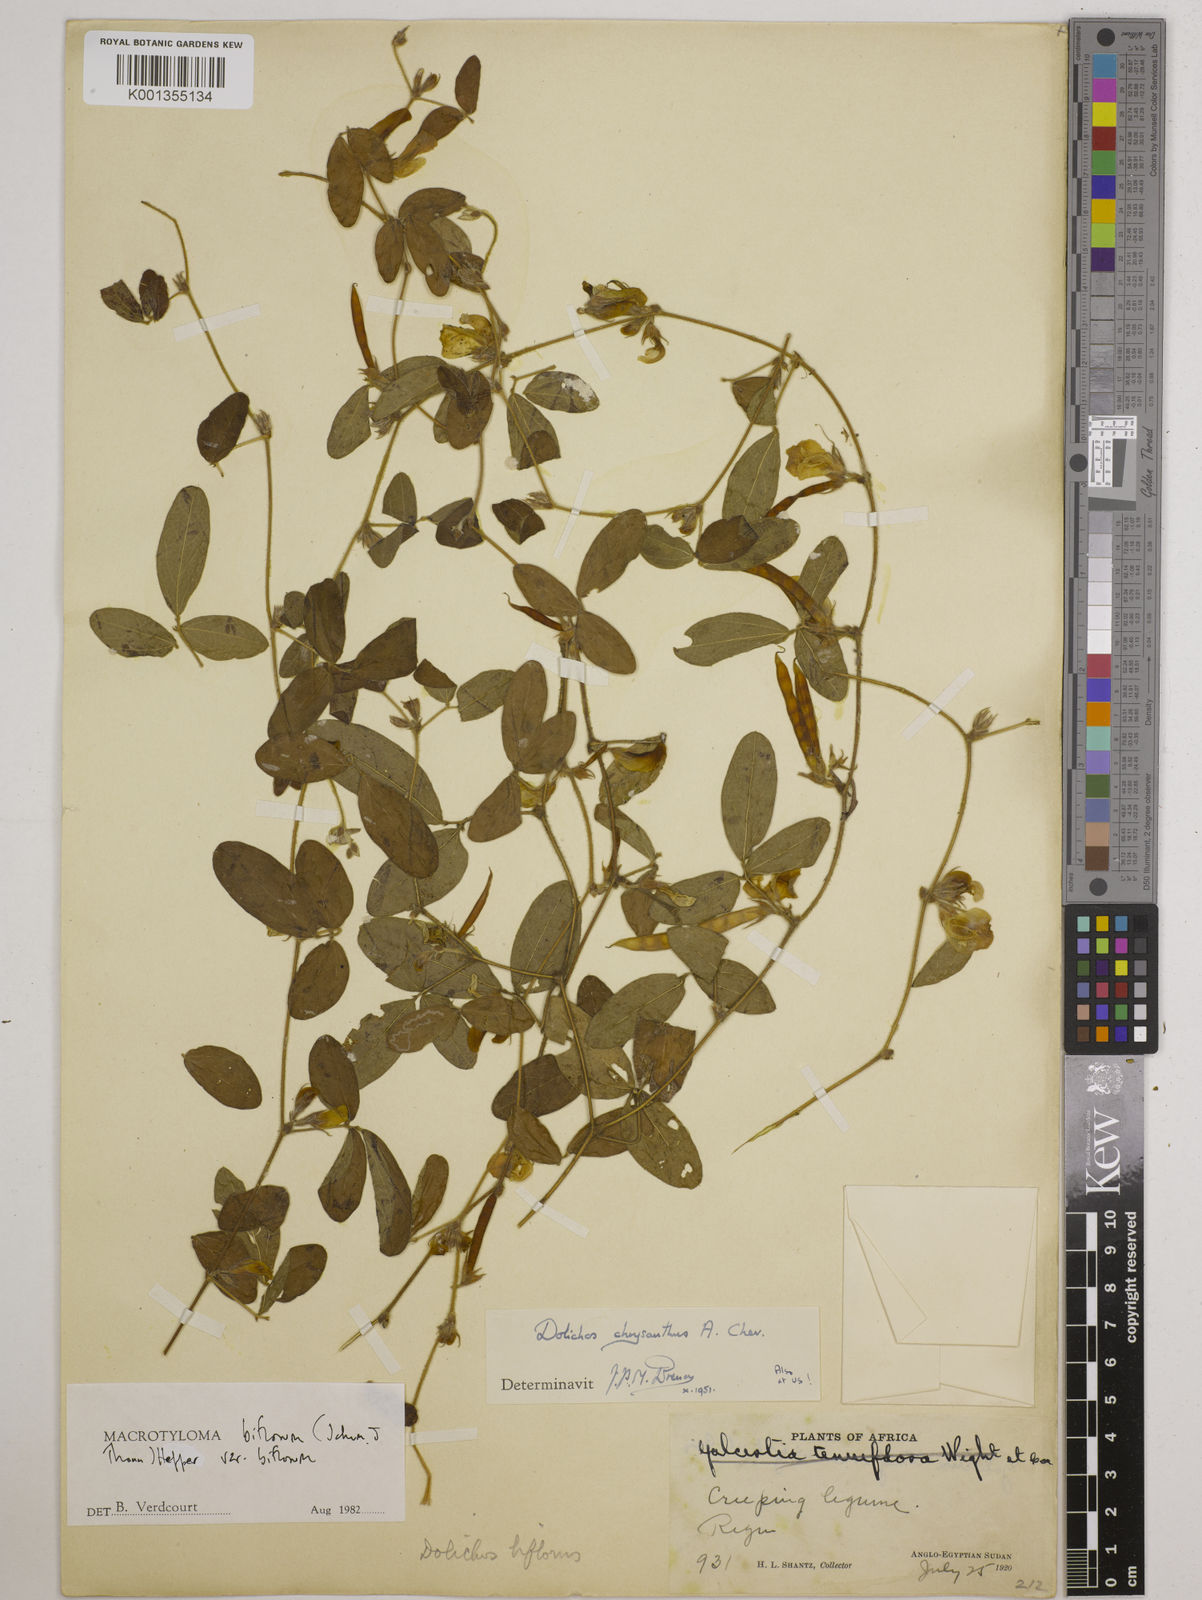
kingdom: Plantae
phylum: Tracheophyta
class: Magnoliopsida
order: Fabales
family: Fabaceae
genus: Macrotyloma
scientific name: Macrotyloma biflorum
